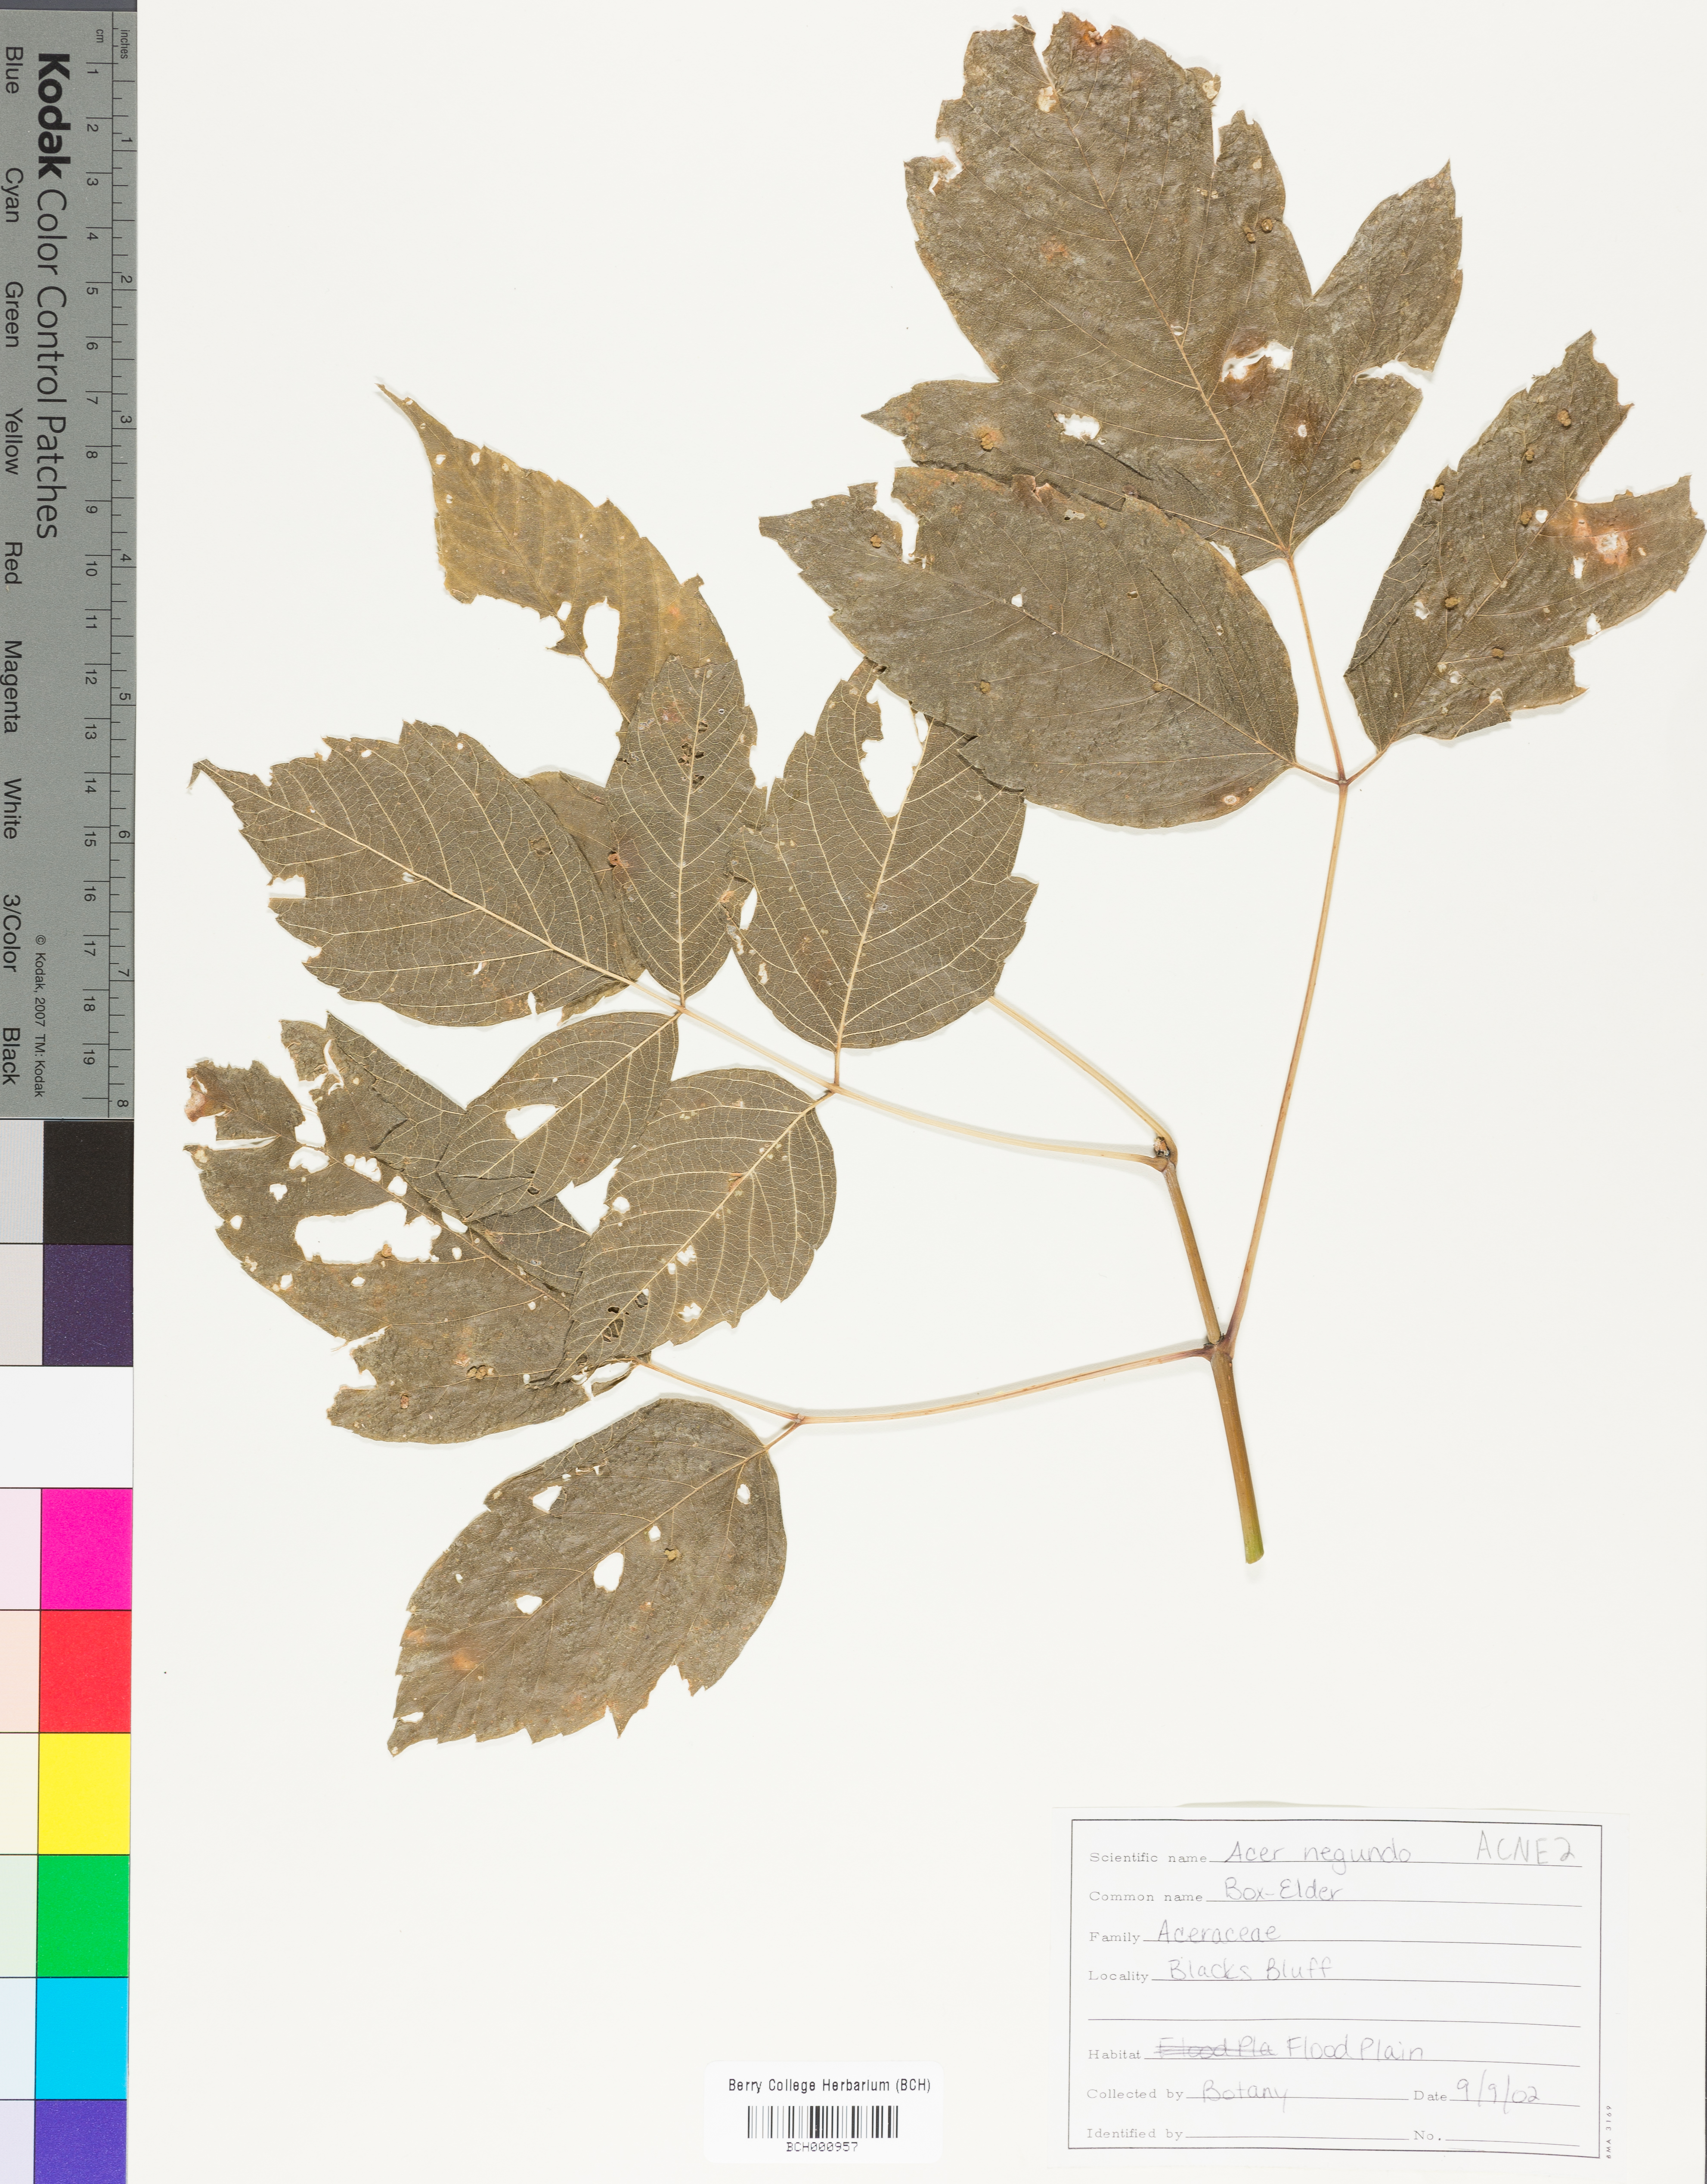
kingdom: Plantae
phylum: Tracheophyta
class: Magnoliopsida
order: Sapindales
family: Sapindaceae
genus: Acer
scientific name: Acer negundo
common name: Ashleaf maple
